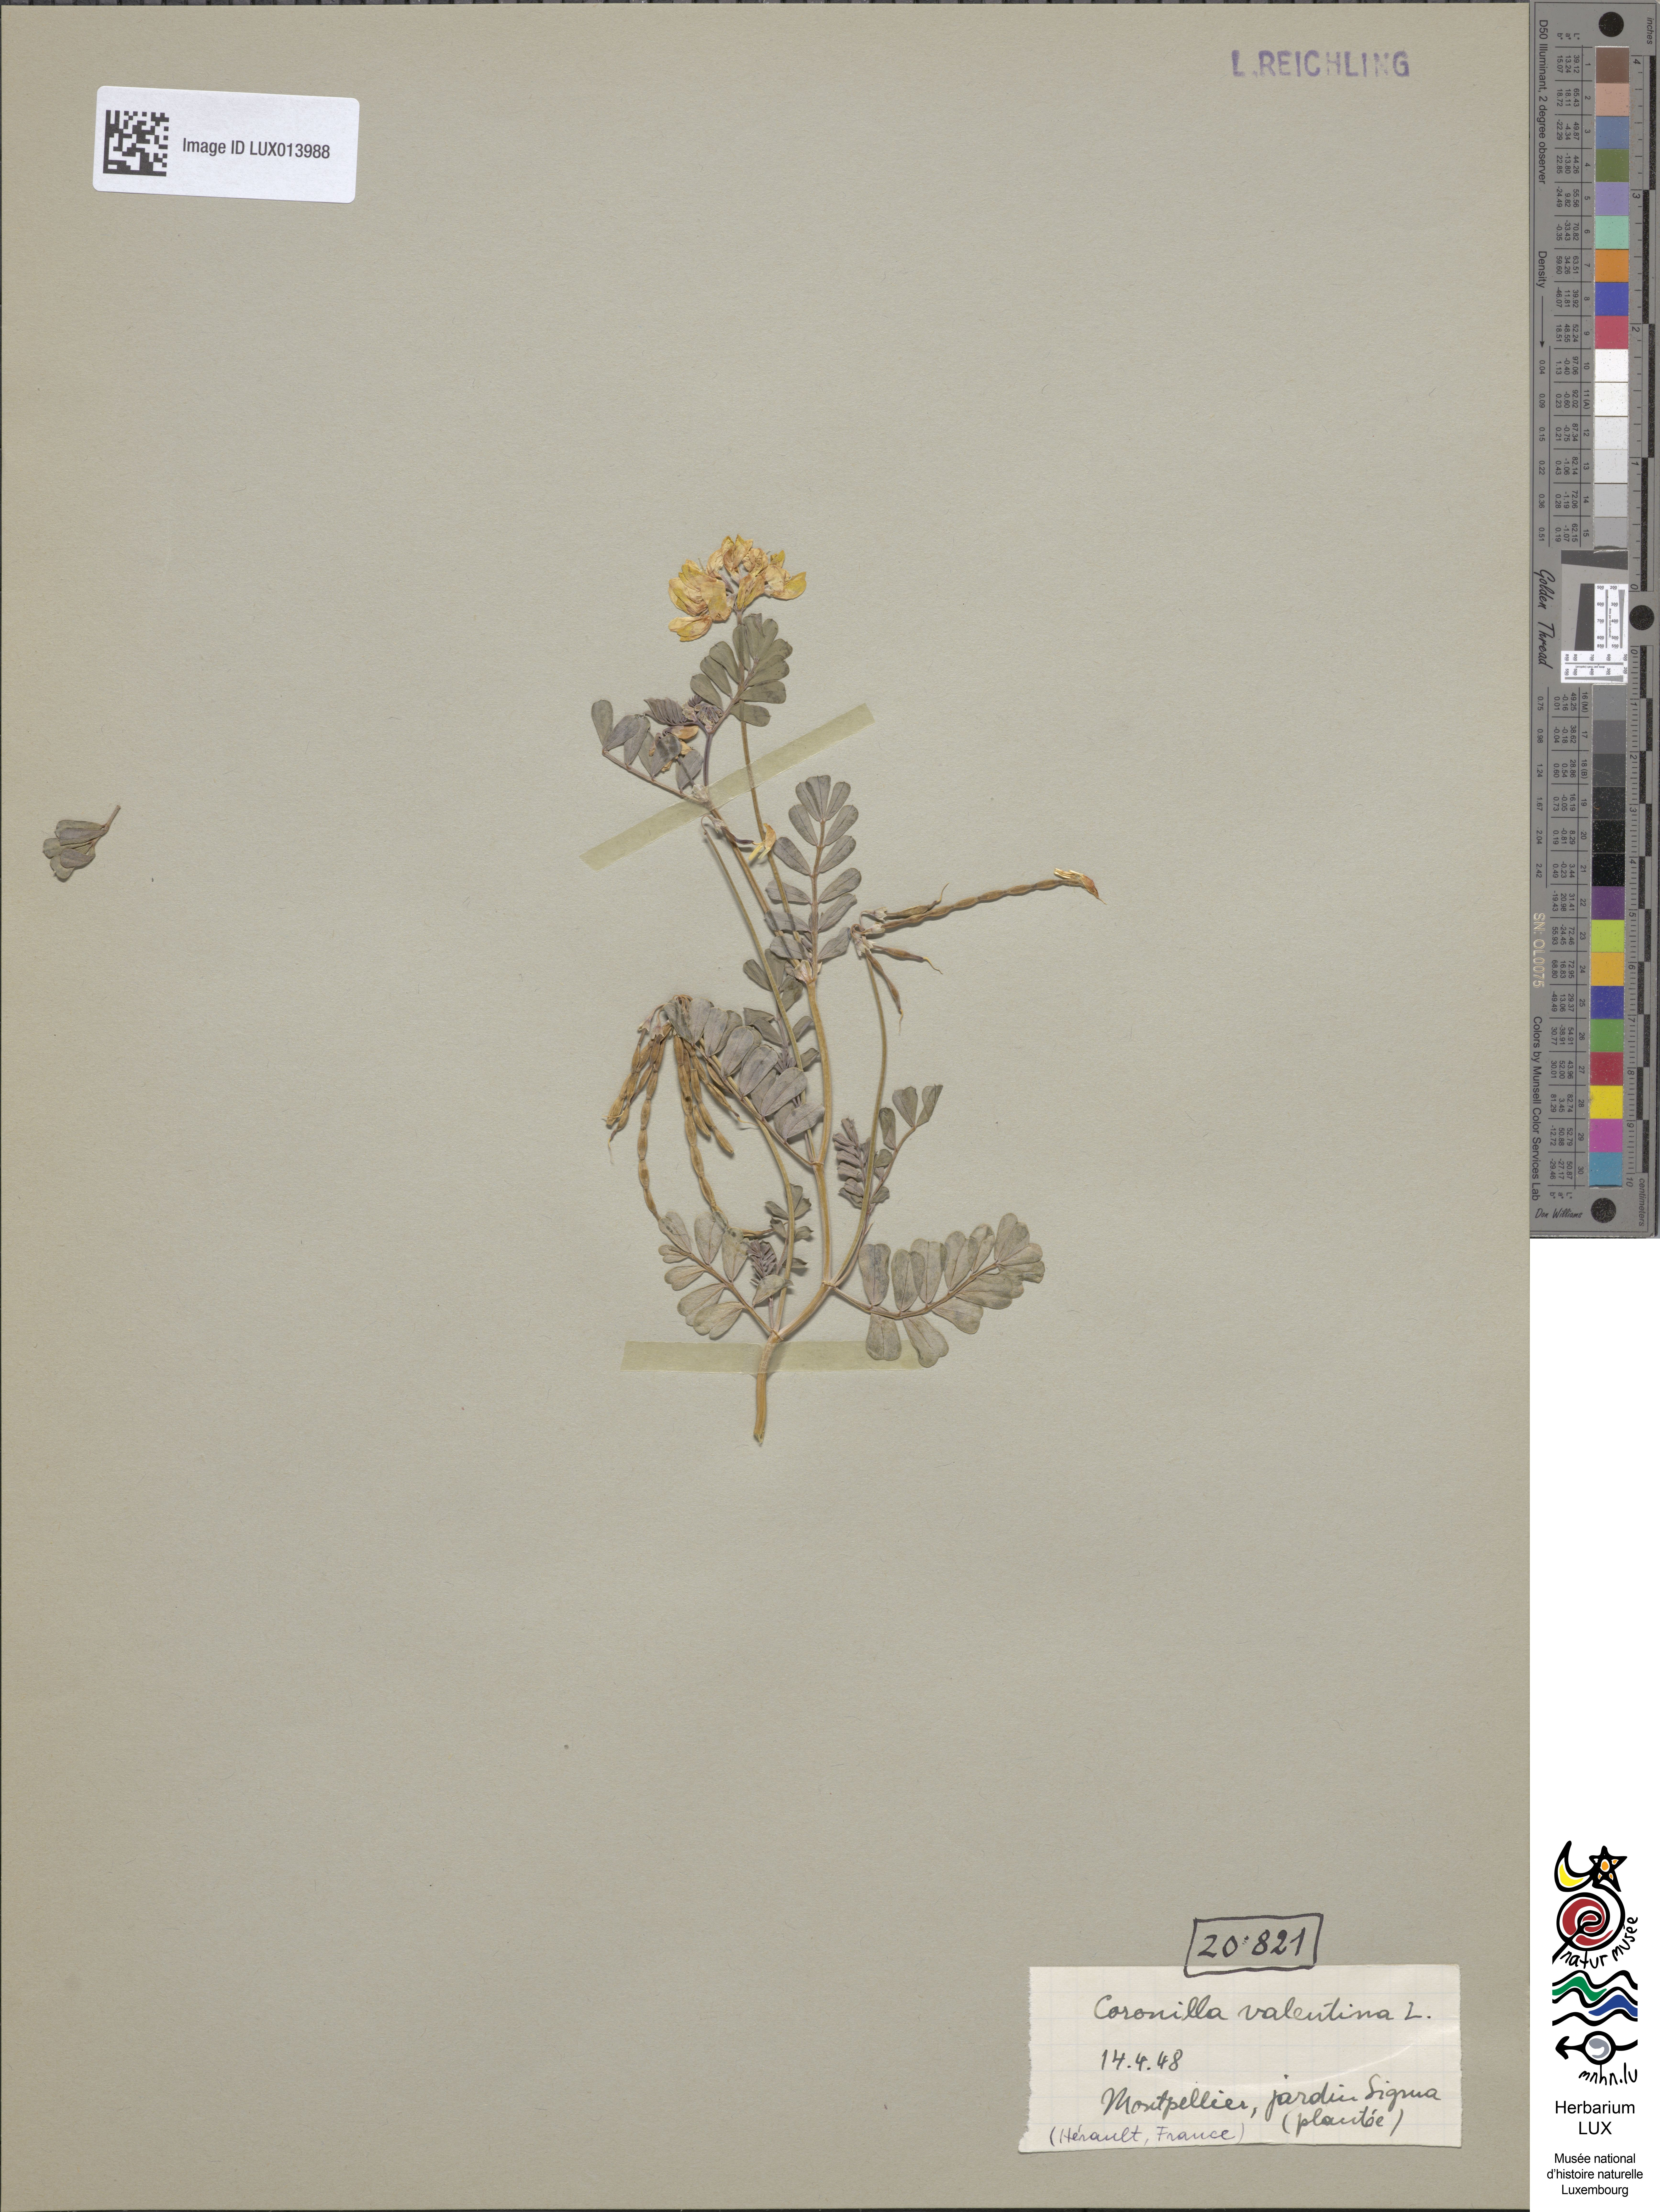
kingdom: Plantae
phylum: Tracheophyta
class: Magnoliopsida
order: Fabales
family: Fabaceae
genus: Coronilla
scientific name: Coronilla valentina
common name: Shrubby scorpion-vetch
